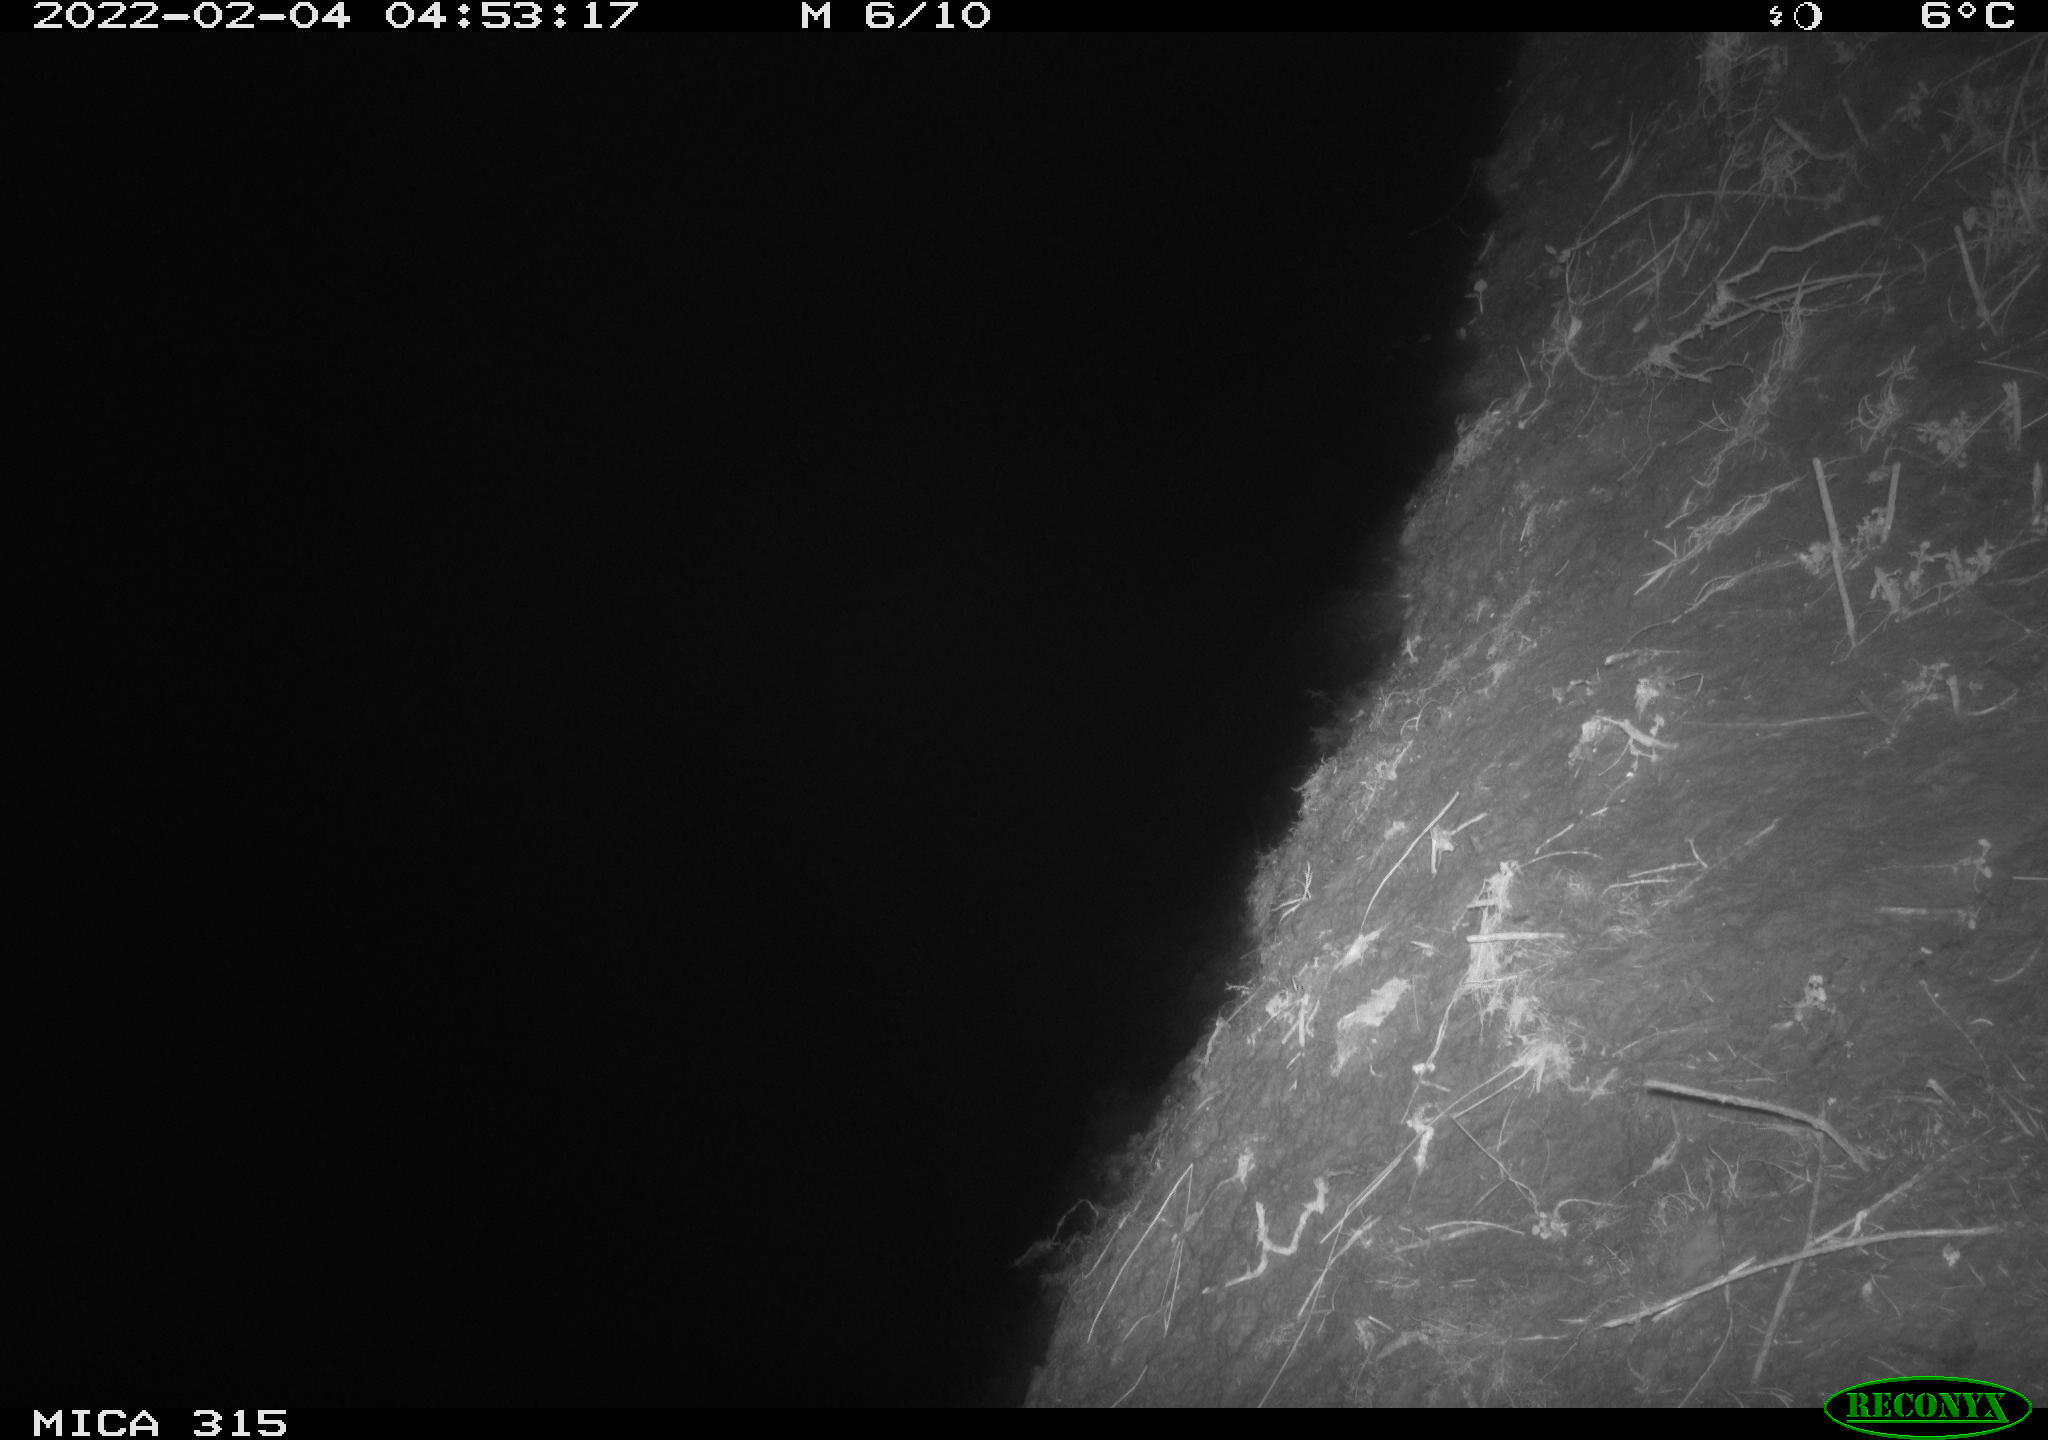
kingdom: Animalia
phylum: Chordata
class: Mammalia
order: Rodentia
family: Muridae
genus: Rattus
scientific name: Rattus norvegicus
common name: Brown rat
